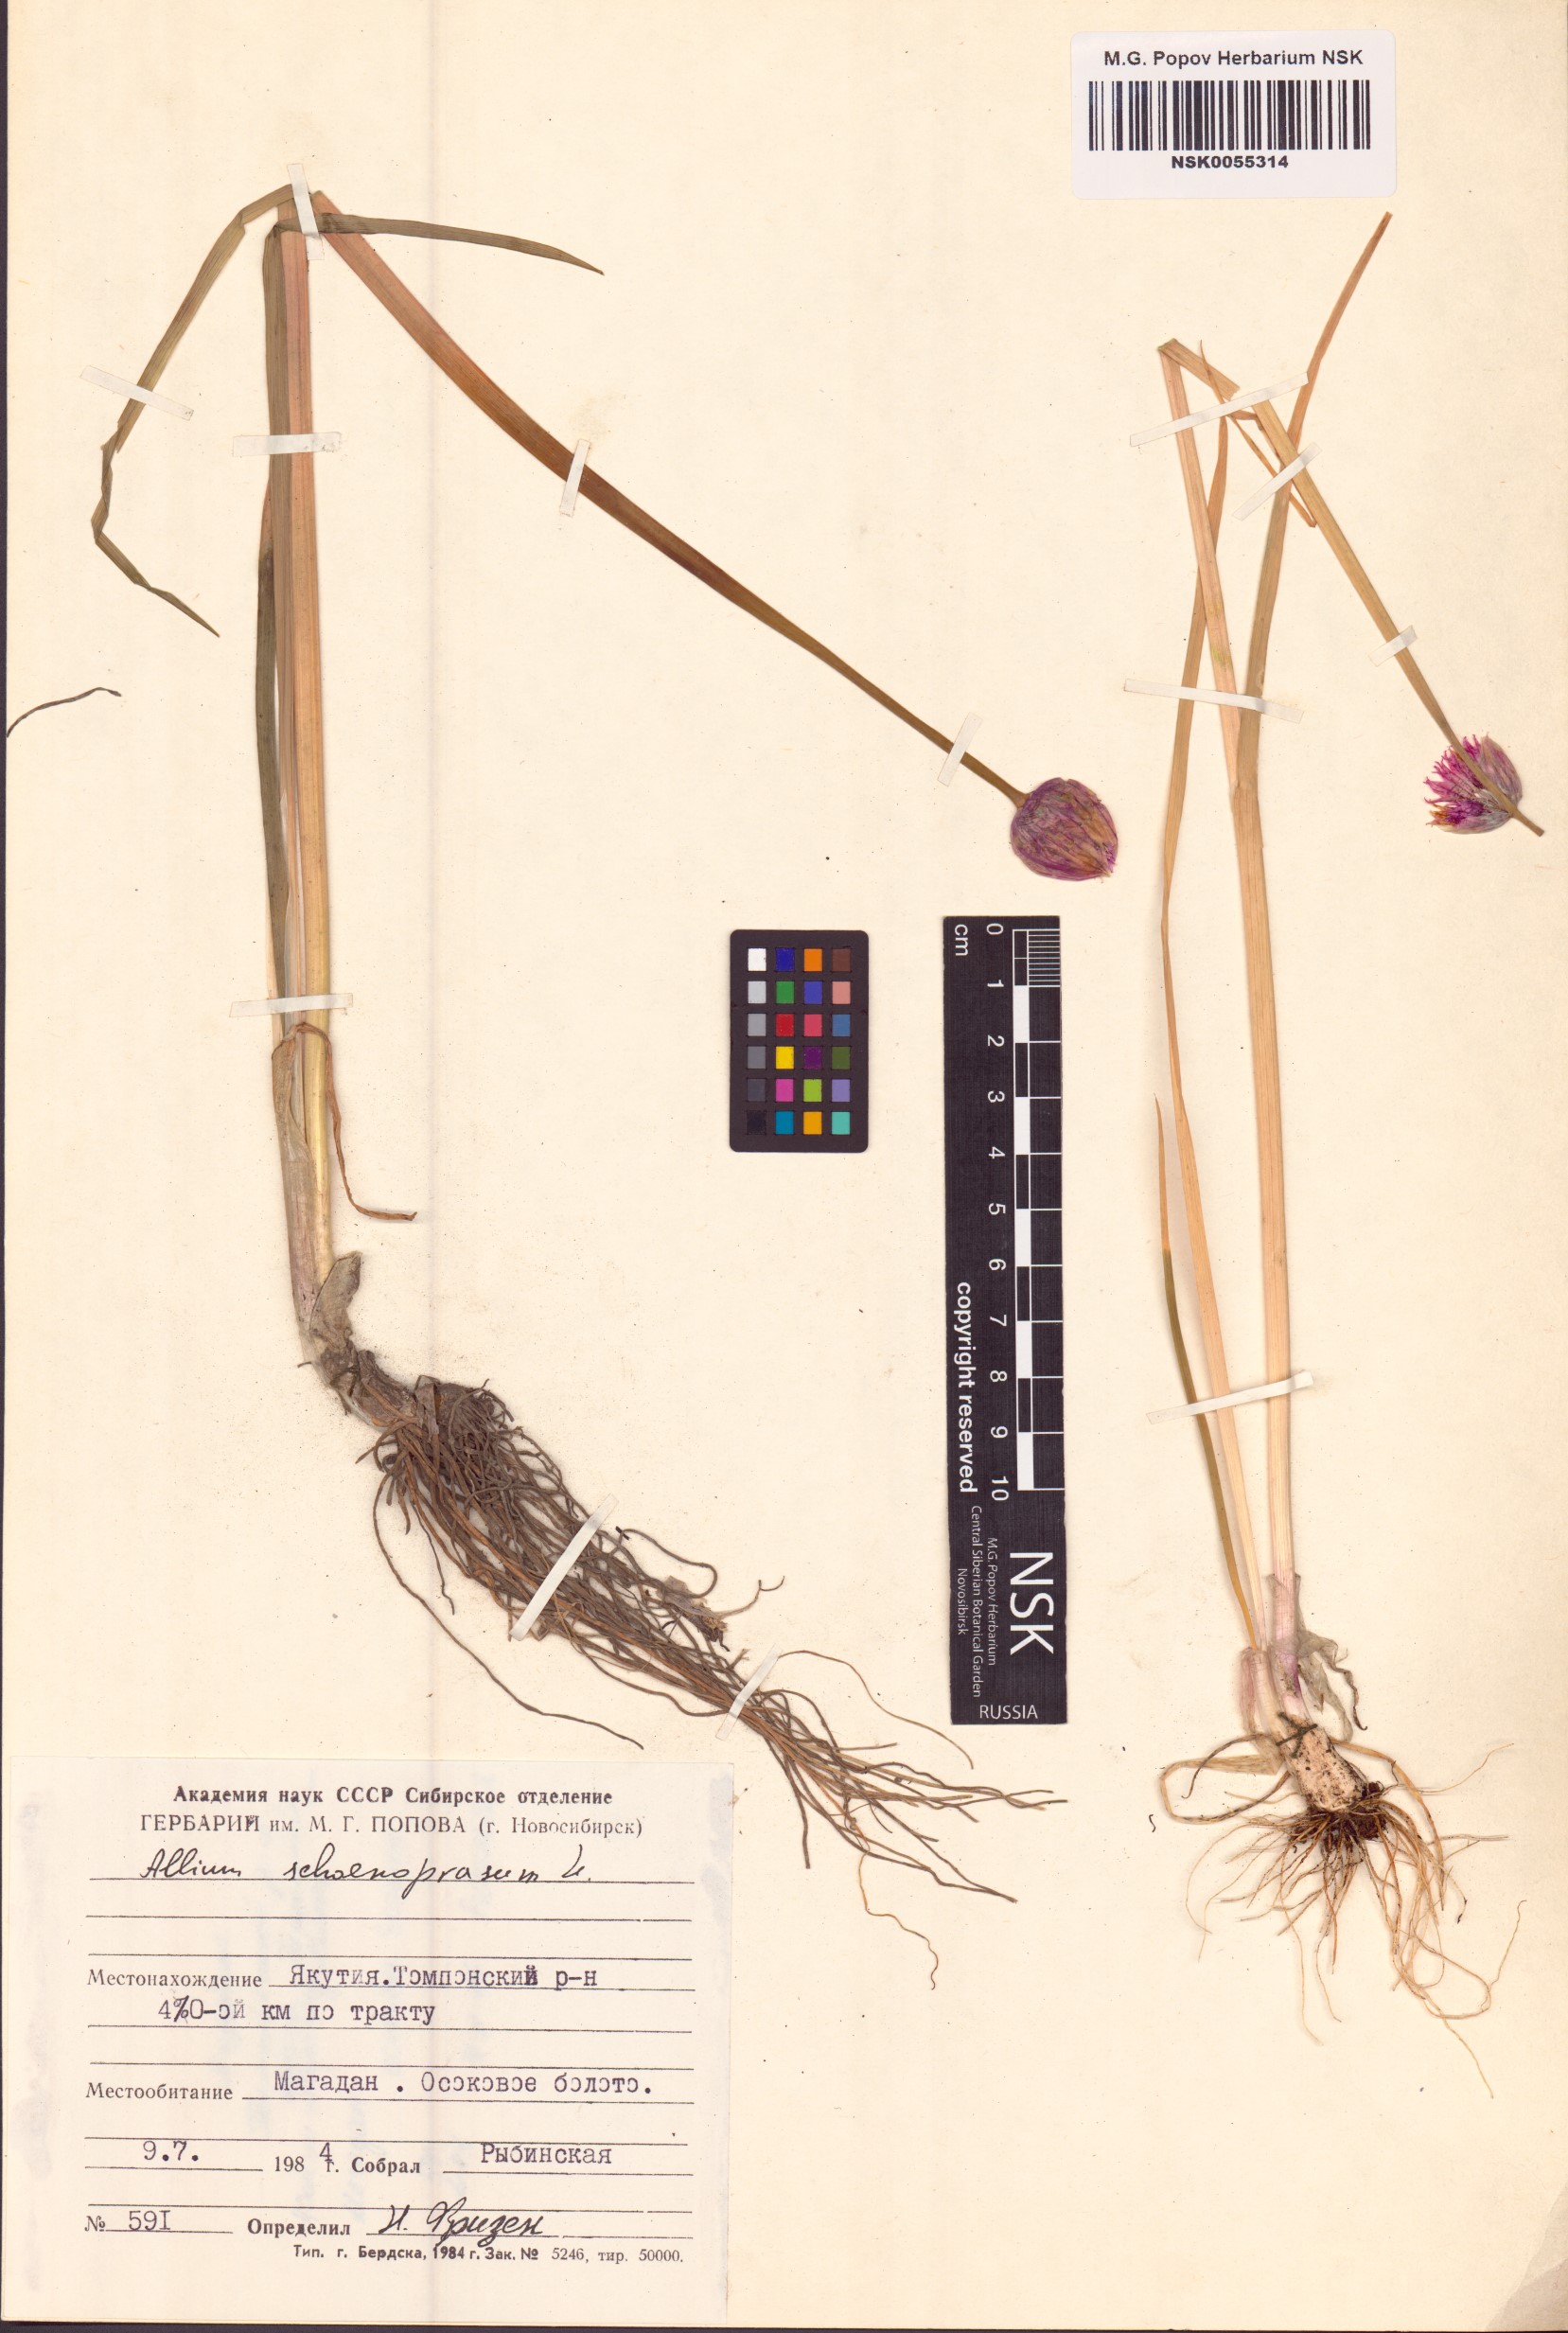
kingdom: Plantae
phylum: Tracheophyta
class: Liliopsida
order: Asparagales
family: Amaryllidaceae
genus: Allium
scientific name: Allium schoenoprasum
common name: Chives
